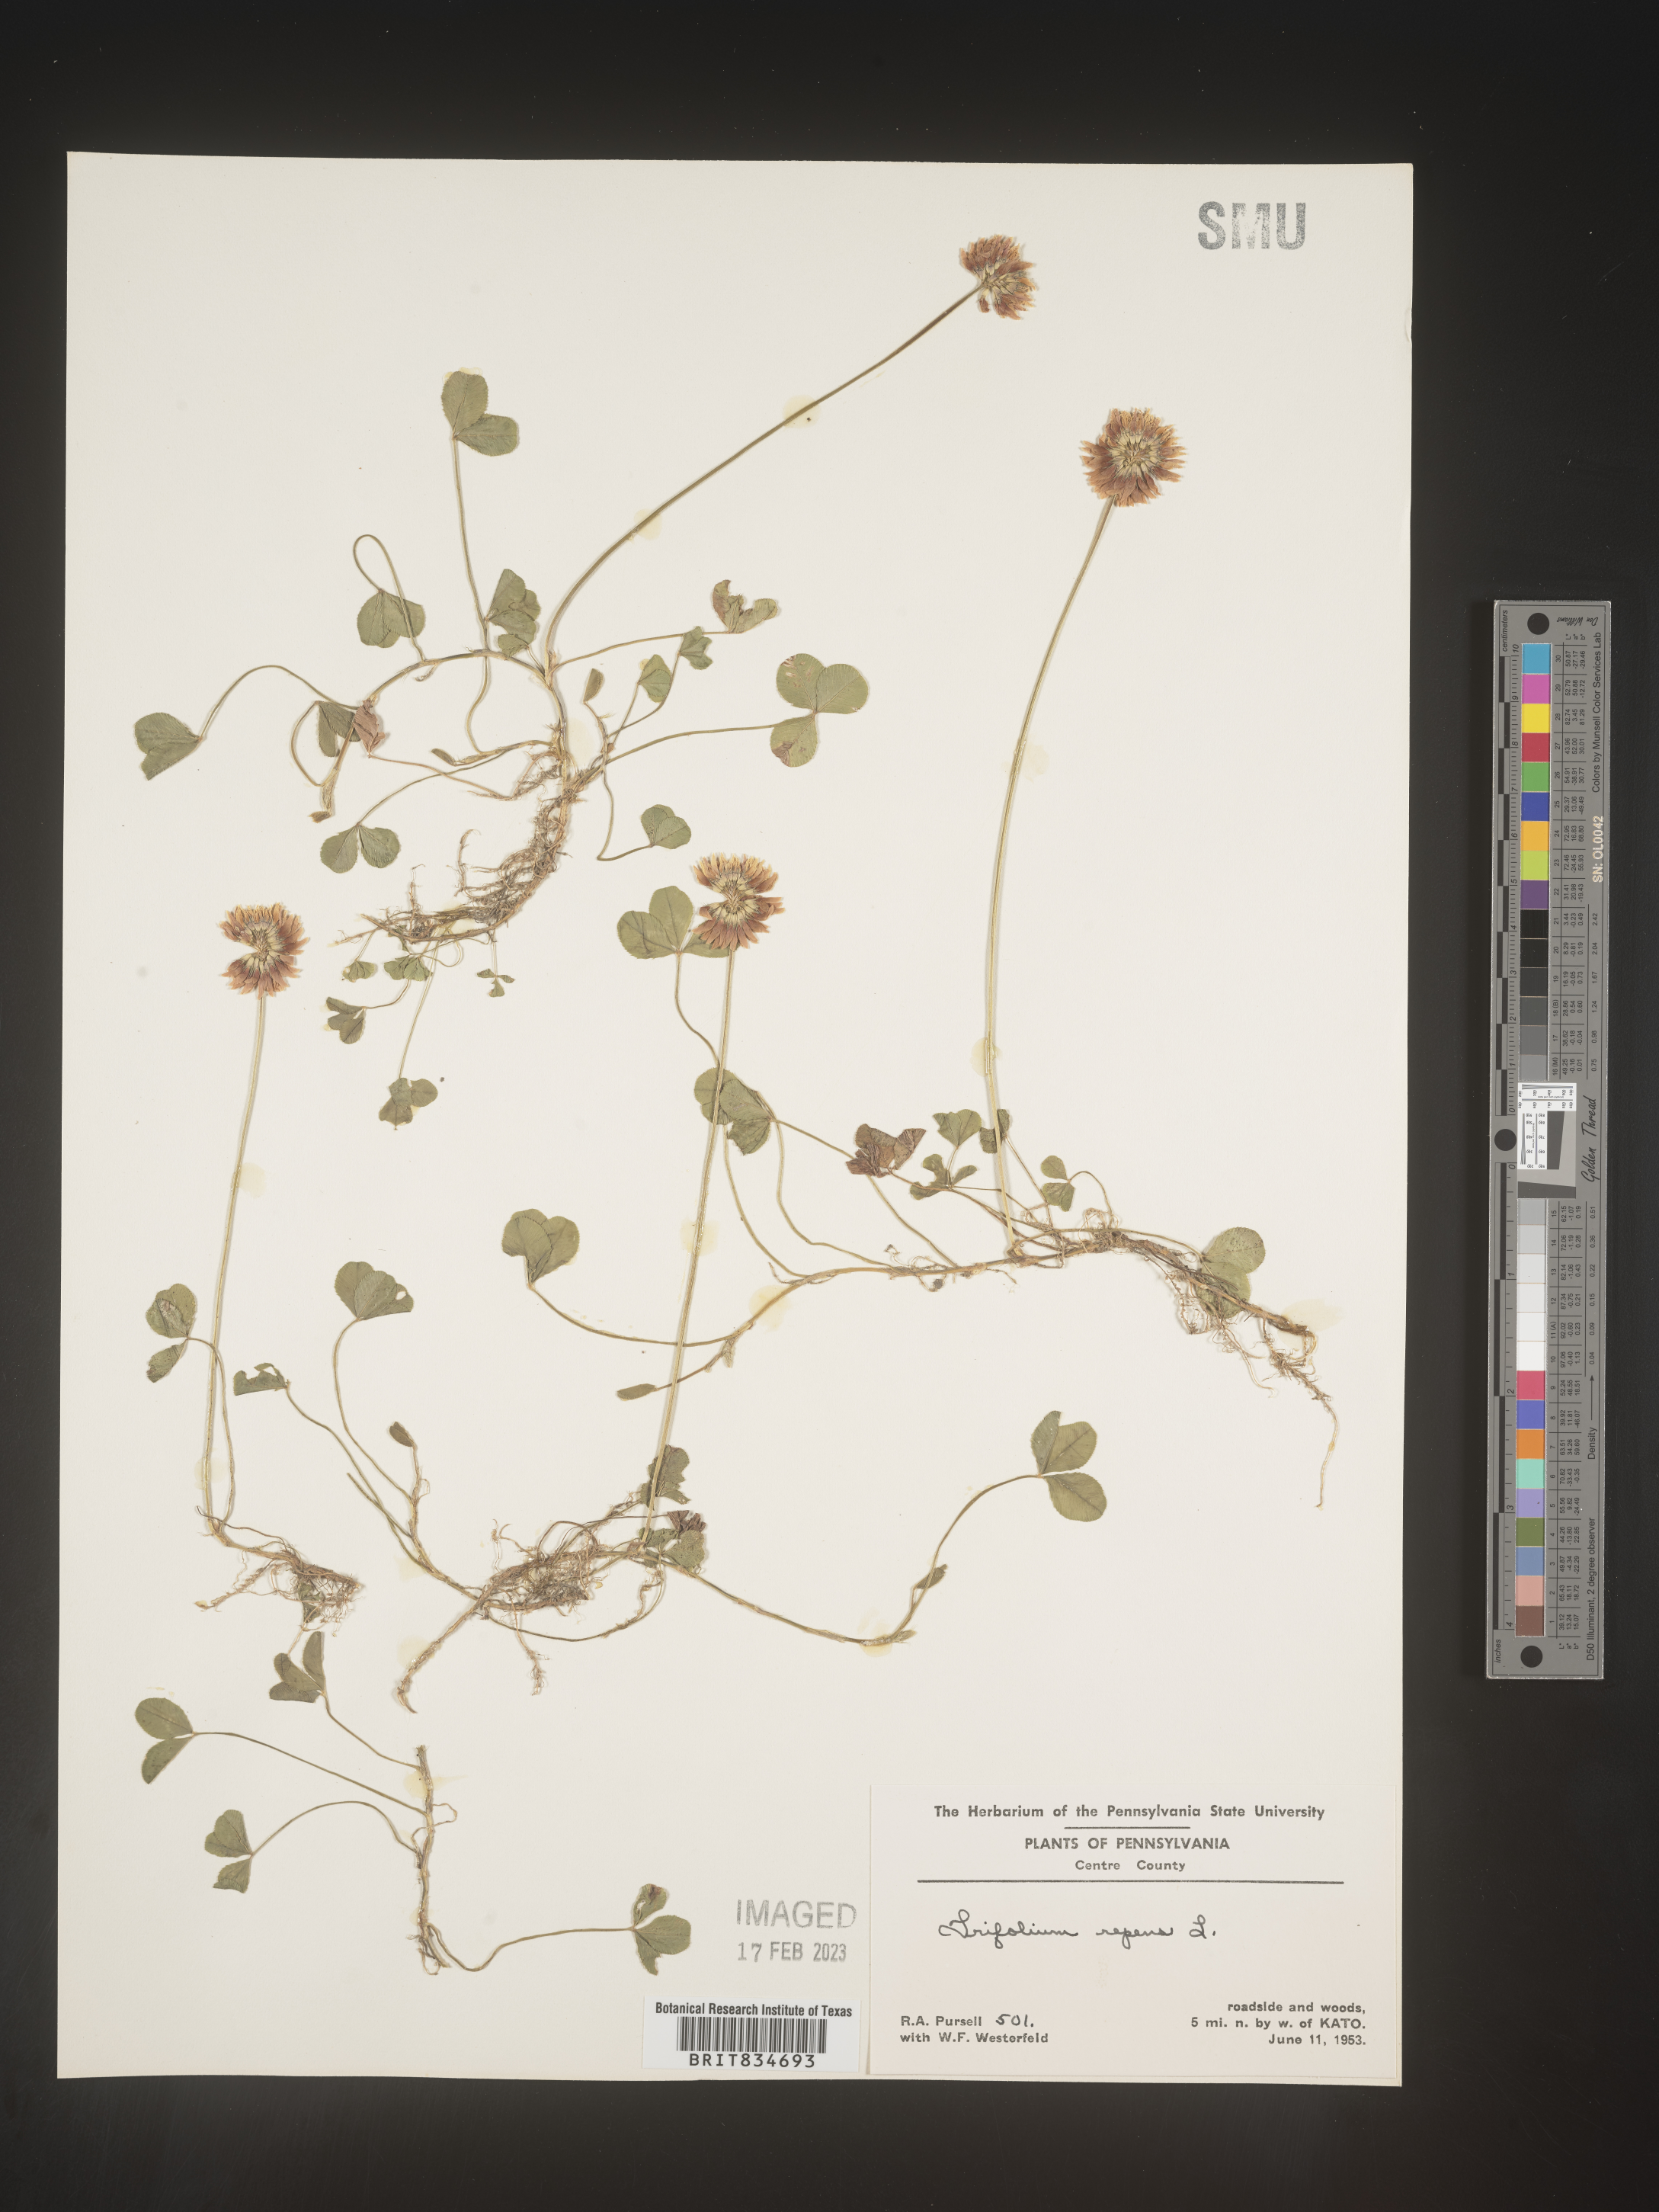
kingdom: Plantae
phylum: Tracheophyta
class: Magnoliopsida
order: Fabales
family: Fabaceae
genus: Trifolium
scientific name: Trifolium repens
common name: White clover
